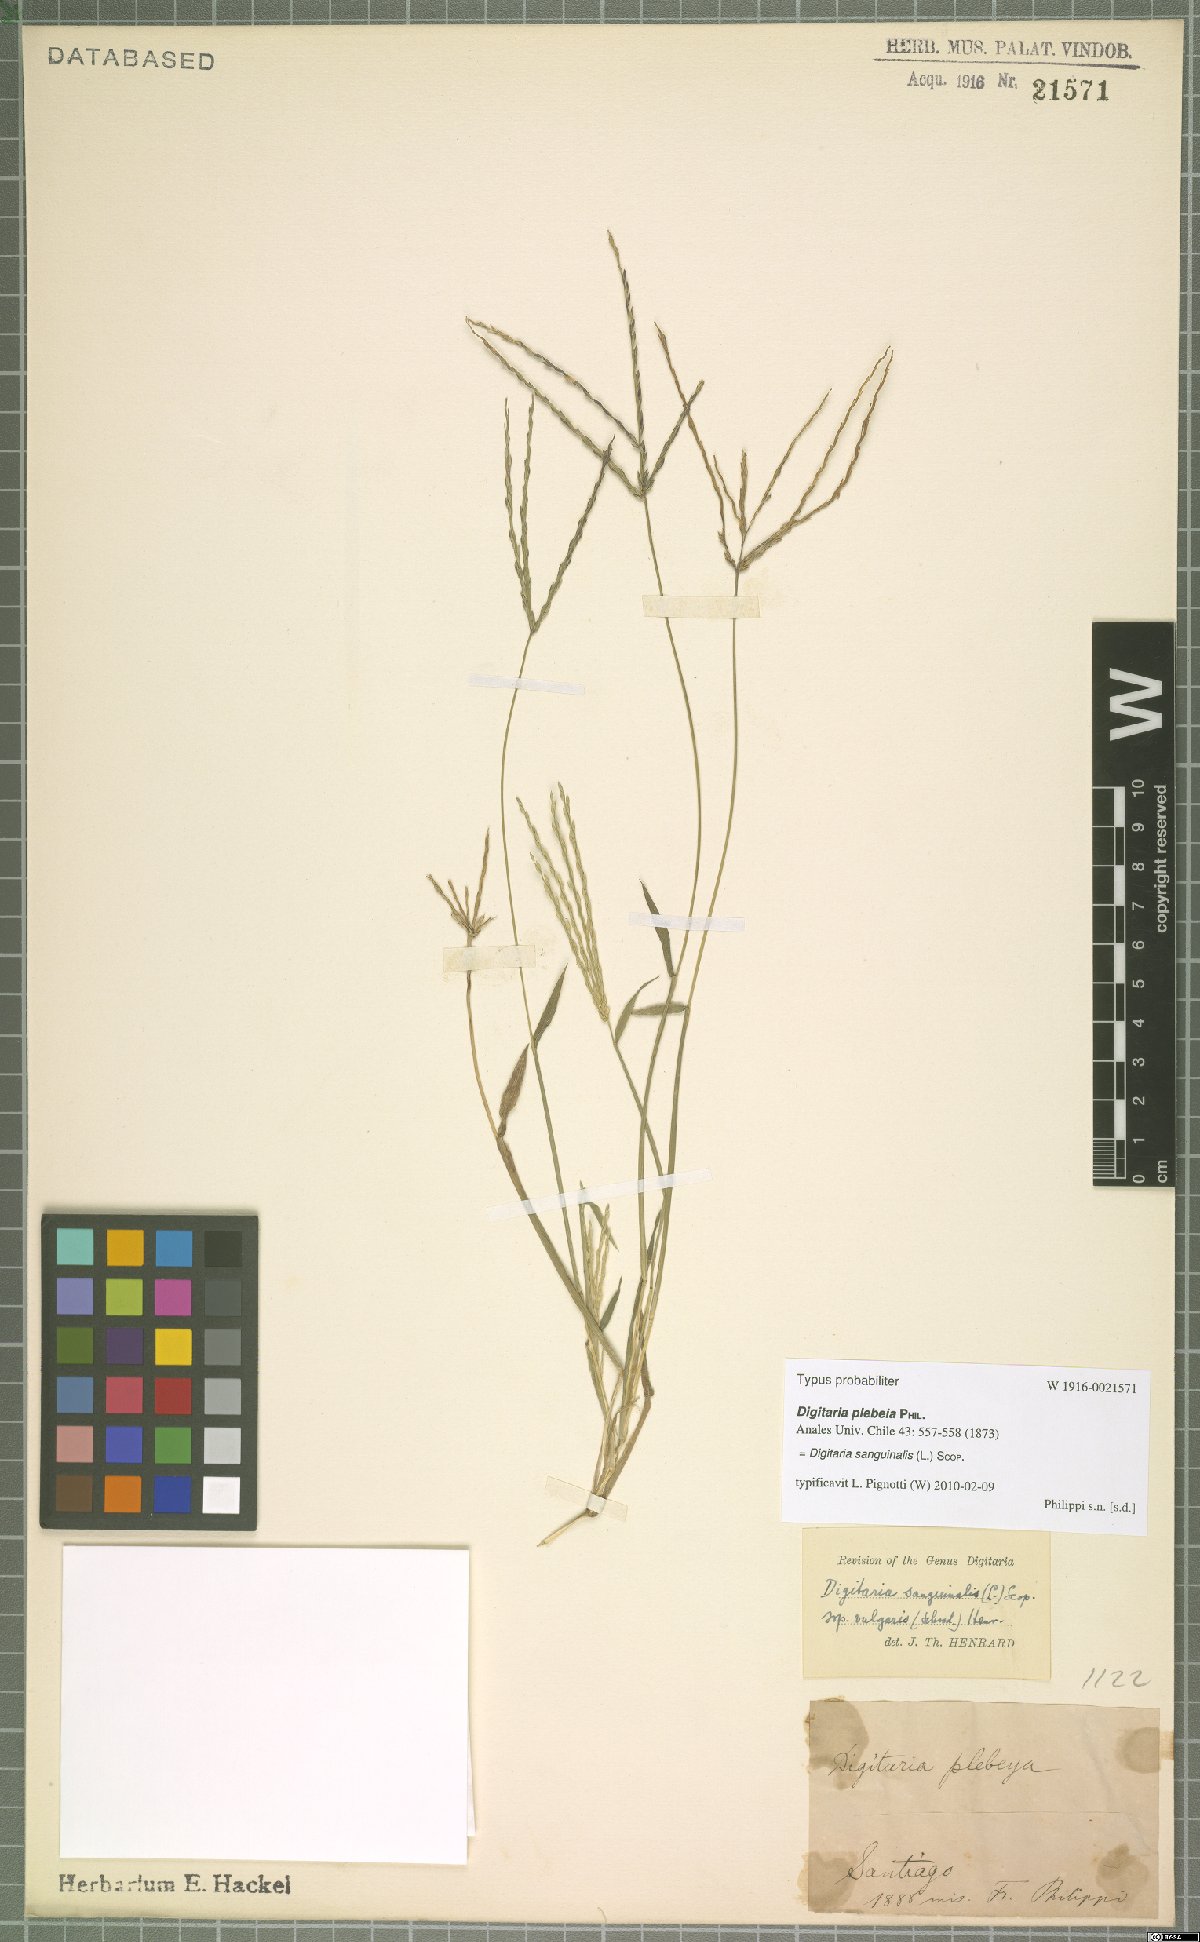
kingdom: Plantae
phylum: Tracheophyta
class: Liliopsida
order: Poales
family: Poaceae
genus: Digitaria
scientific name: Digitaria sanguinalis
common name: Hairy crabgrass
